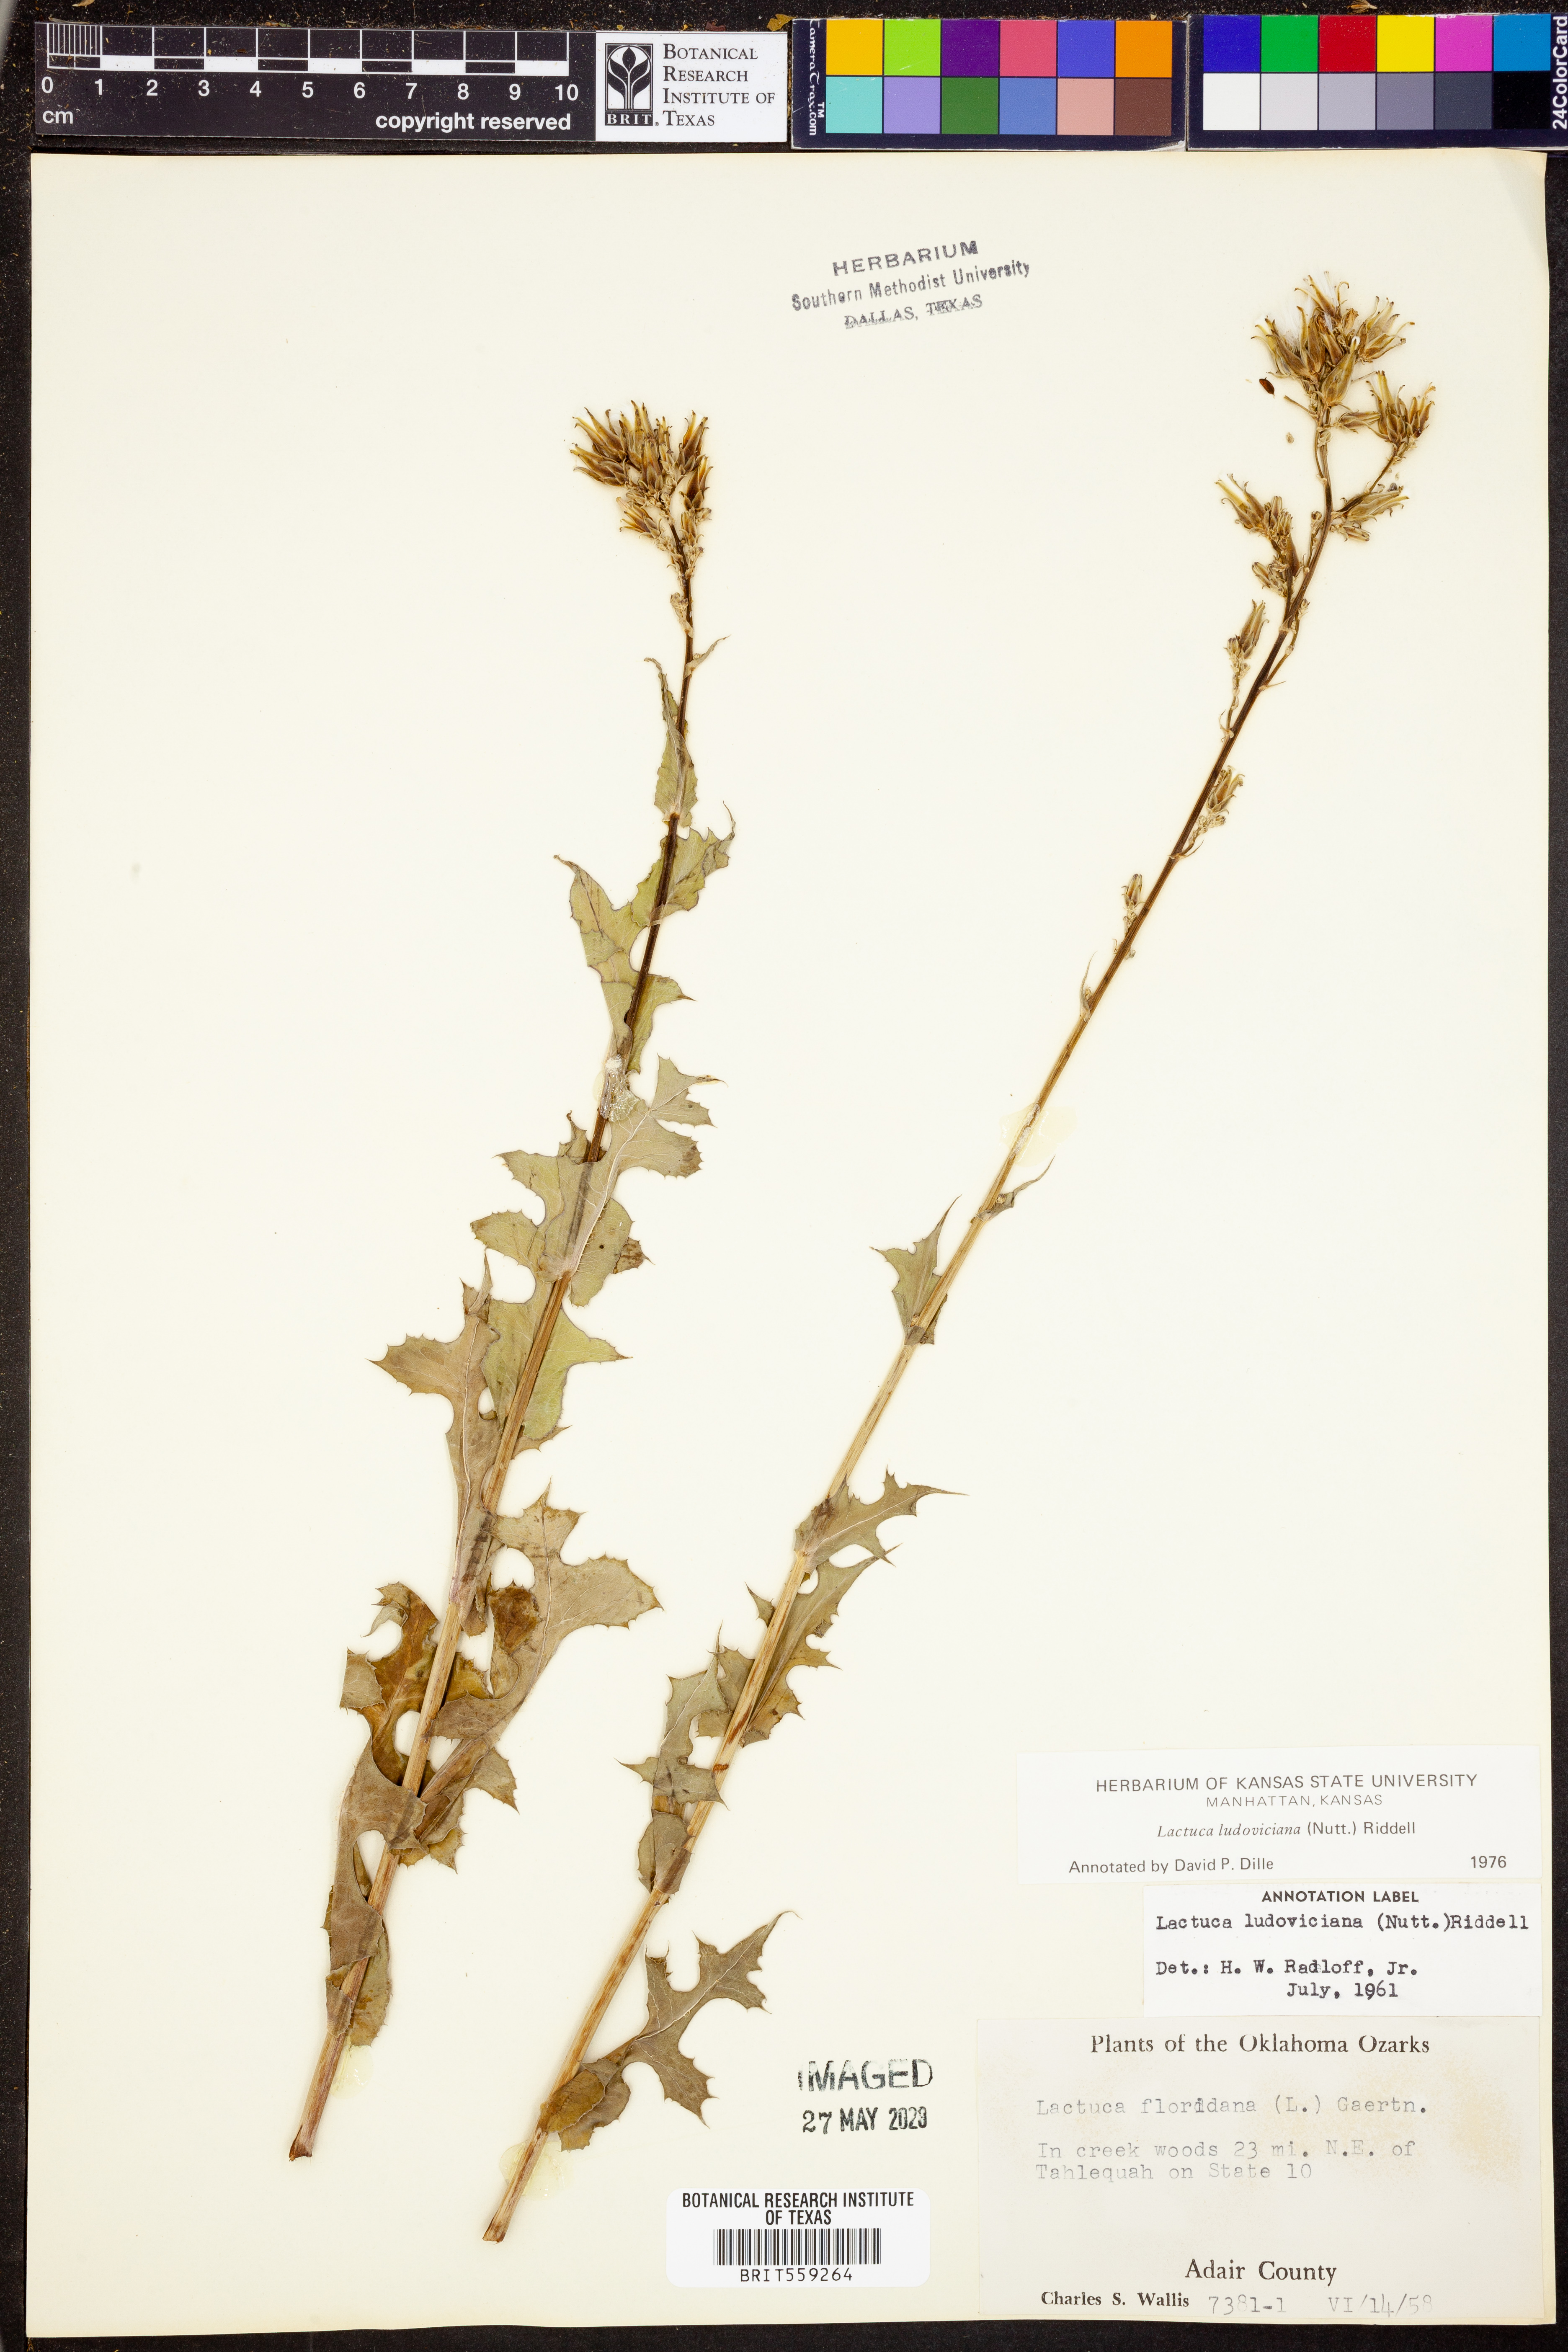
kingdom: Plantae
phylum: Tracheophyta
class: Magnoliopsida
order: Asterales
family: Asteraceae
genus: Lactuca
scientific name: Lactuca ludoviciana
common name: Louisiana lettuce
